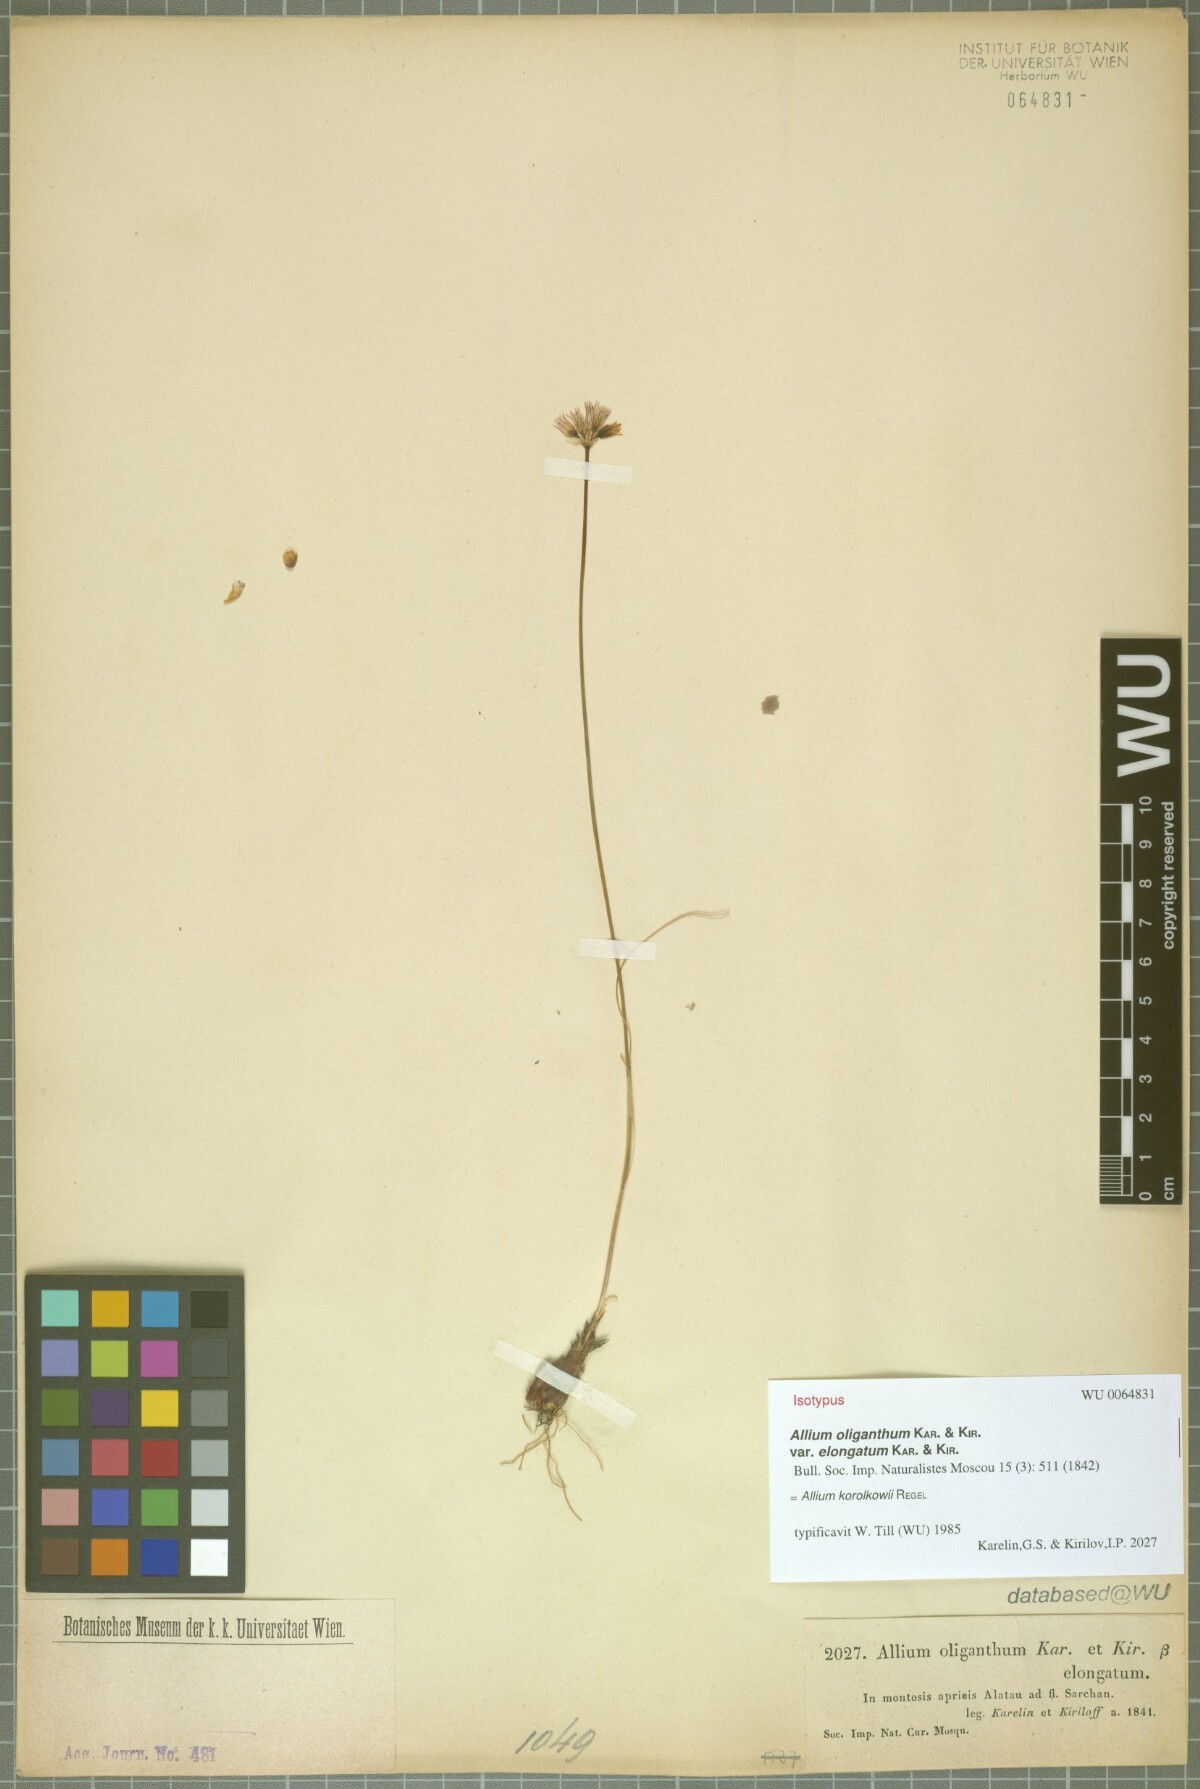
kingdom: Plantae
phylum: Tracheophyta
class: Liliopsida
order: Asparagales
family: Amaryllidaceae
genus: Allium
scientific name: Allium korolkowii
